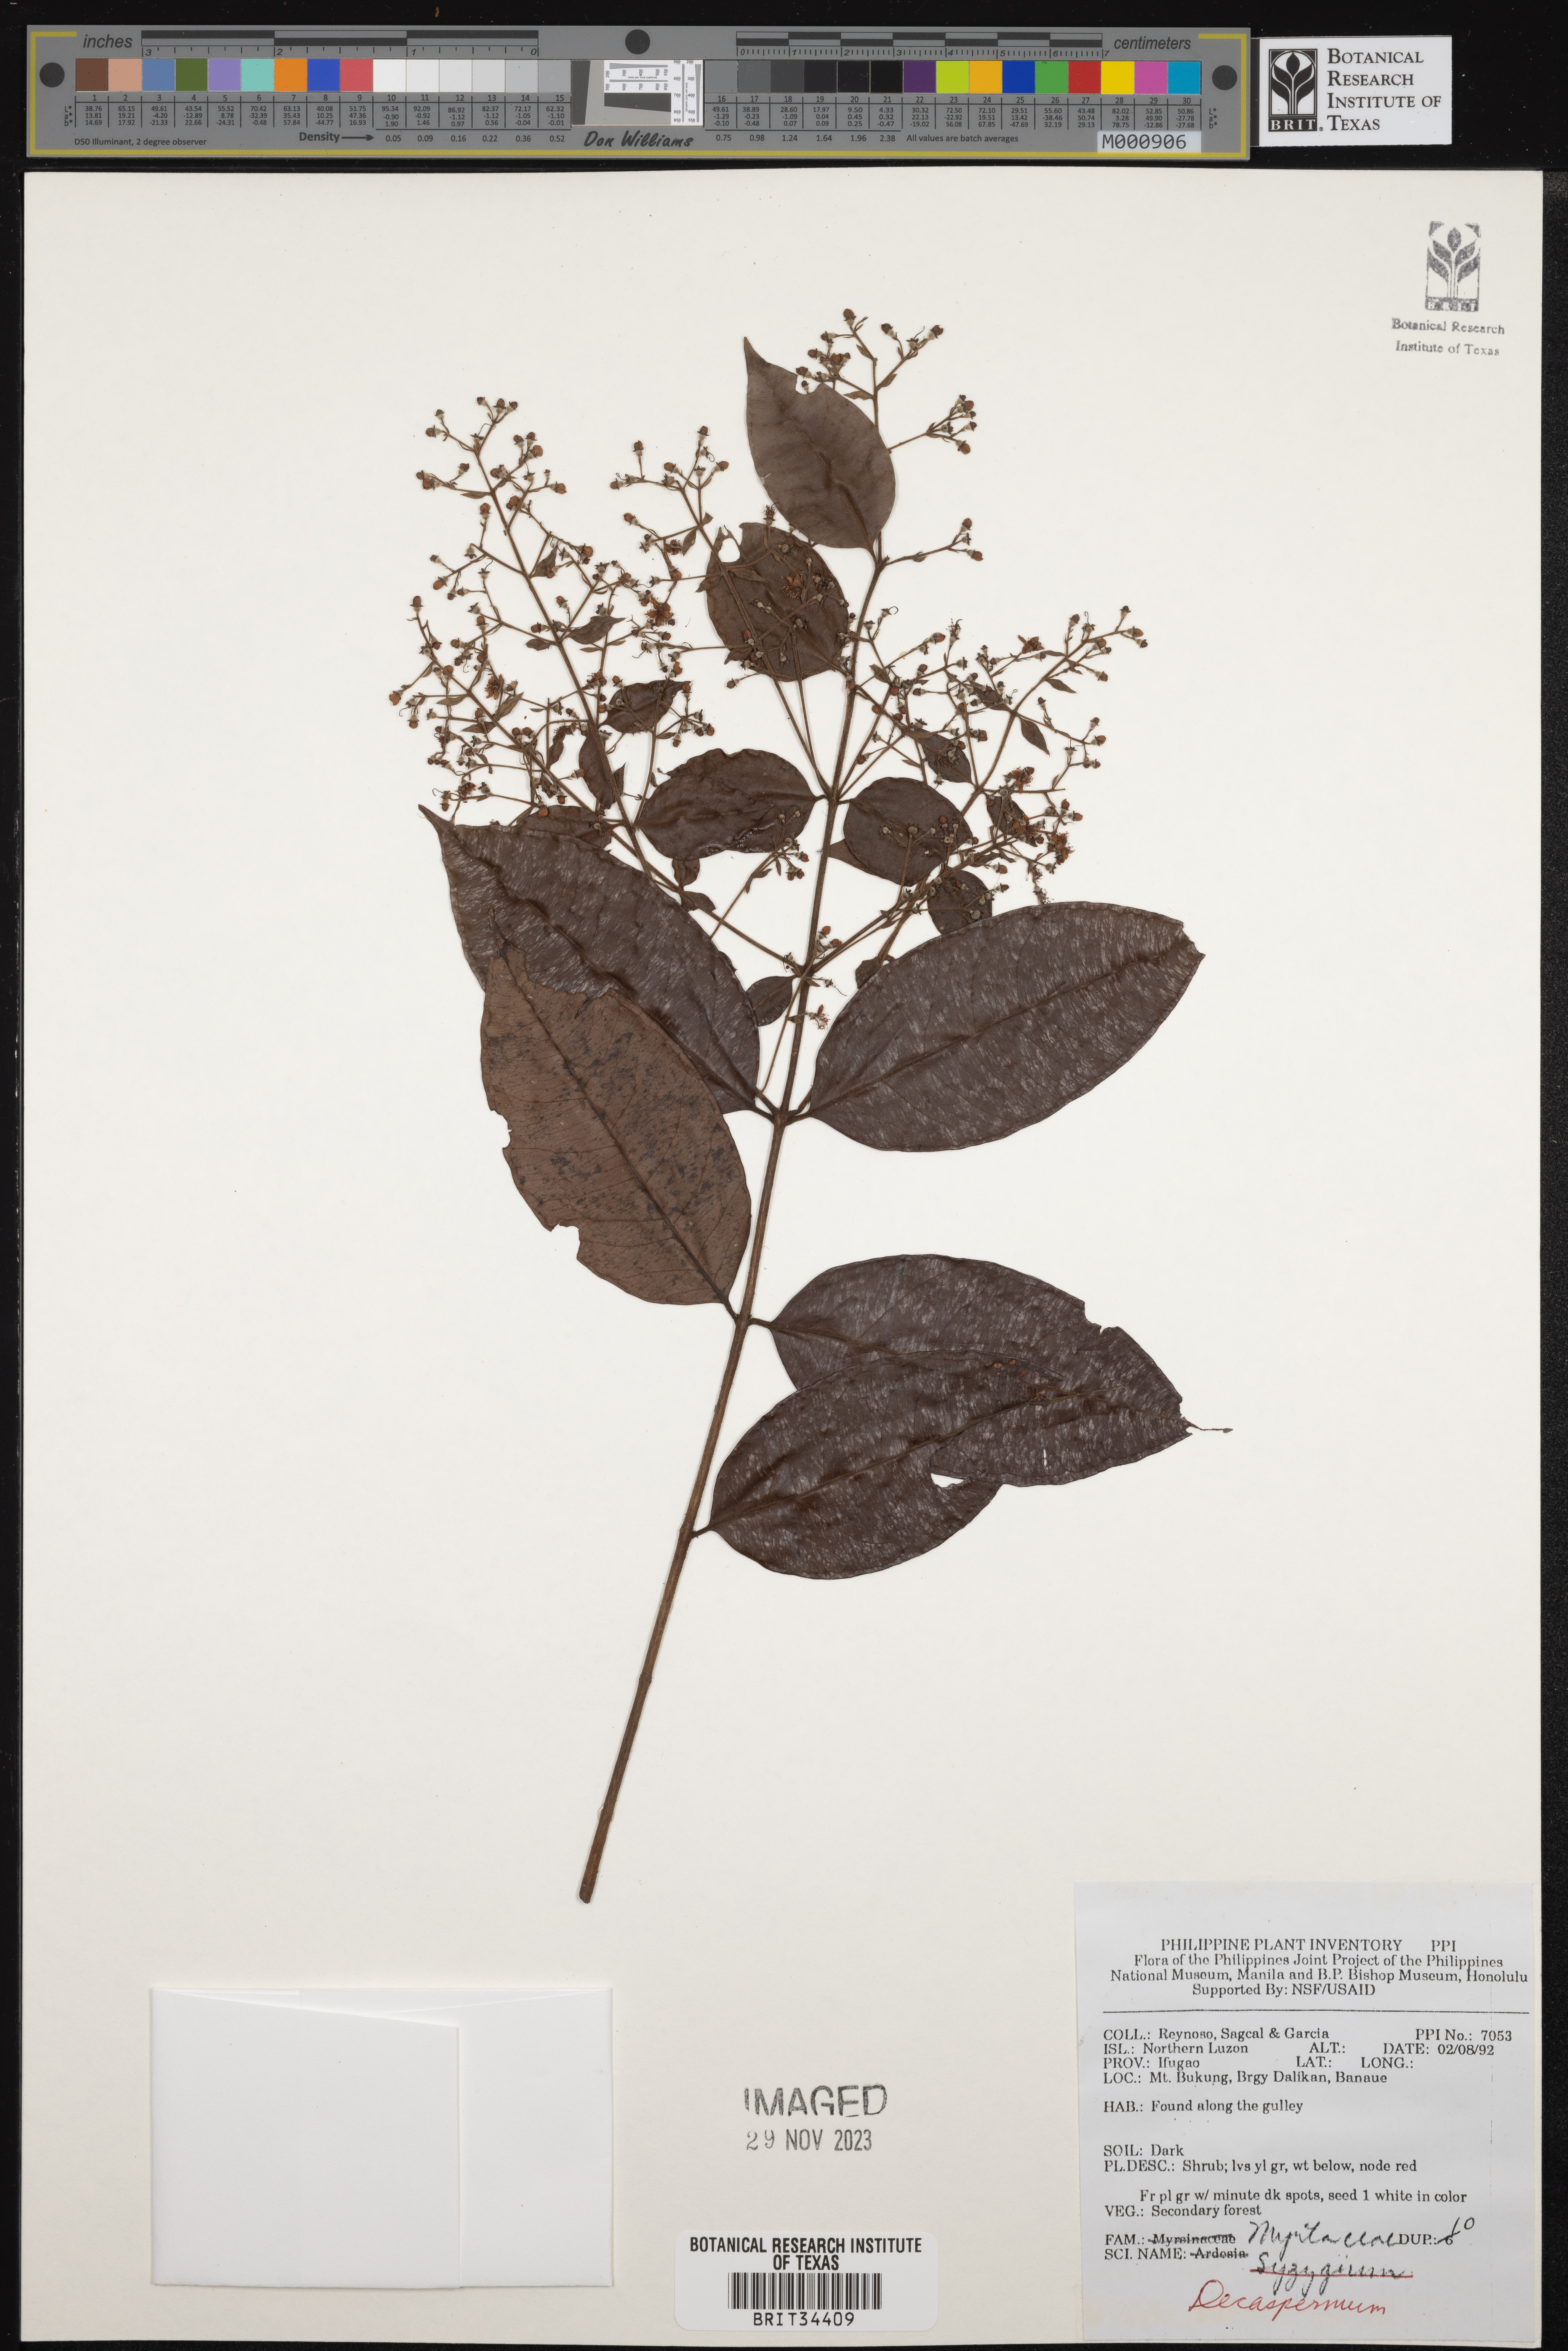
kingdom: Plantae
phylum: Tracheophyta
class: Magnoliopsida
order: Myrtales
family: Myrtaceae
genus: Decaspermum
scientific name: Decaspermum
